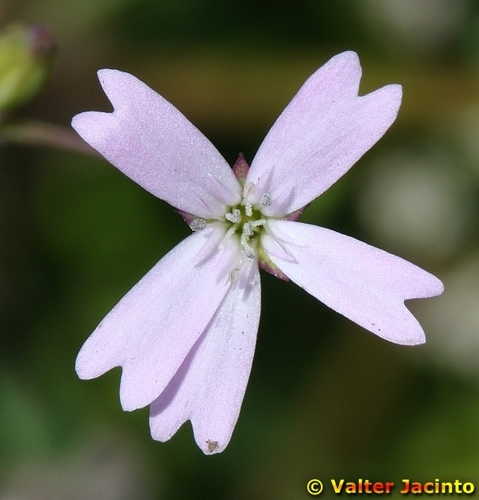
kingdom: Plantae
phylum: Tracheophyta
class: Magnoliopsida
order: Caryophyllales
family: Caryophyllaceae
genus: Eudianthe
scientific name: Eudianthe laeta
